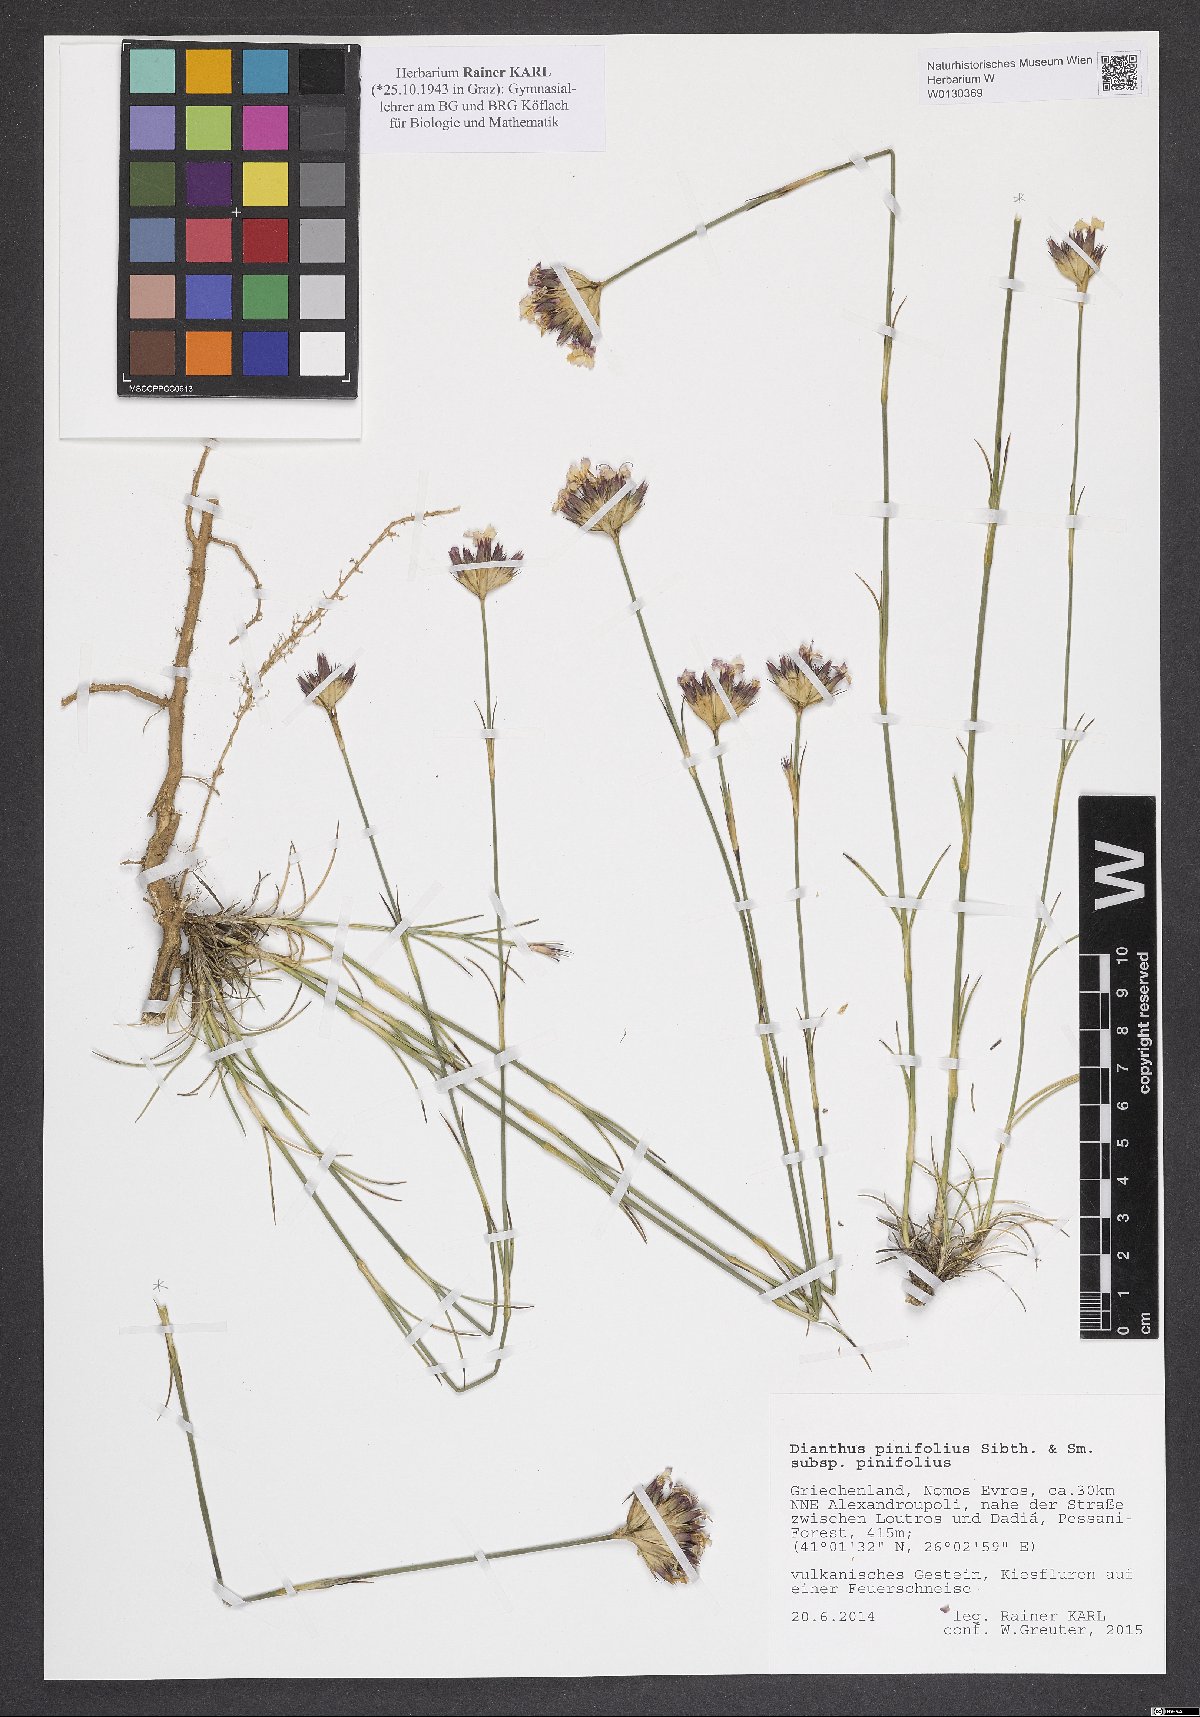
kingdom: Plantae
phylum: Tracheophyta
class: Magnoliopsida
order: Caryophyllales
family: Caryophyllaceae
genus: Dianthus
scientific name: Dianthus pinifolius
